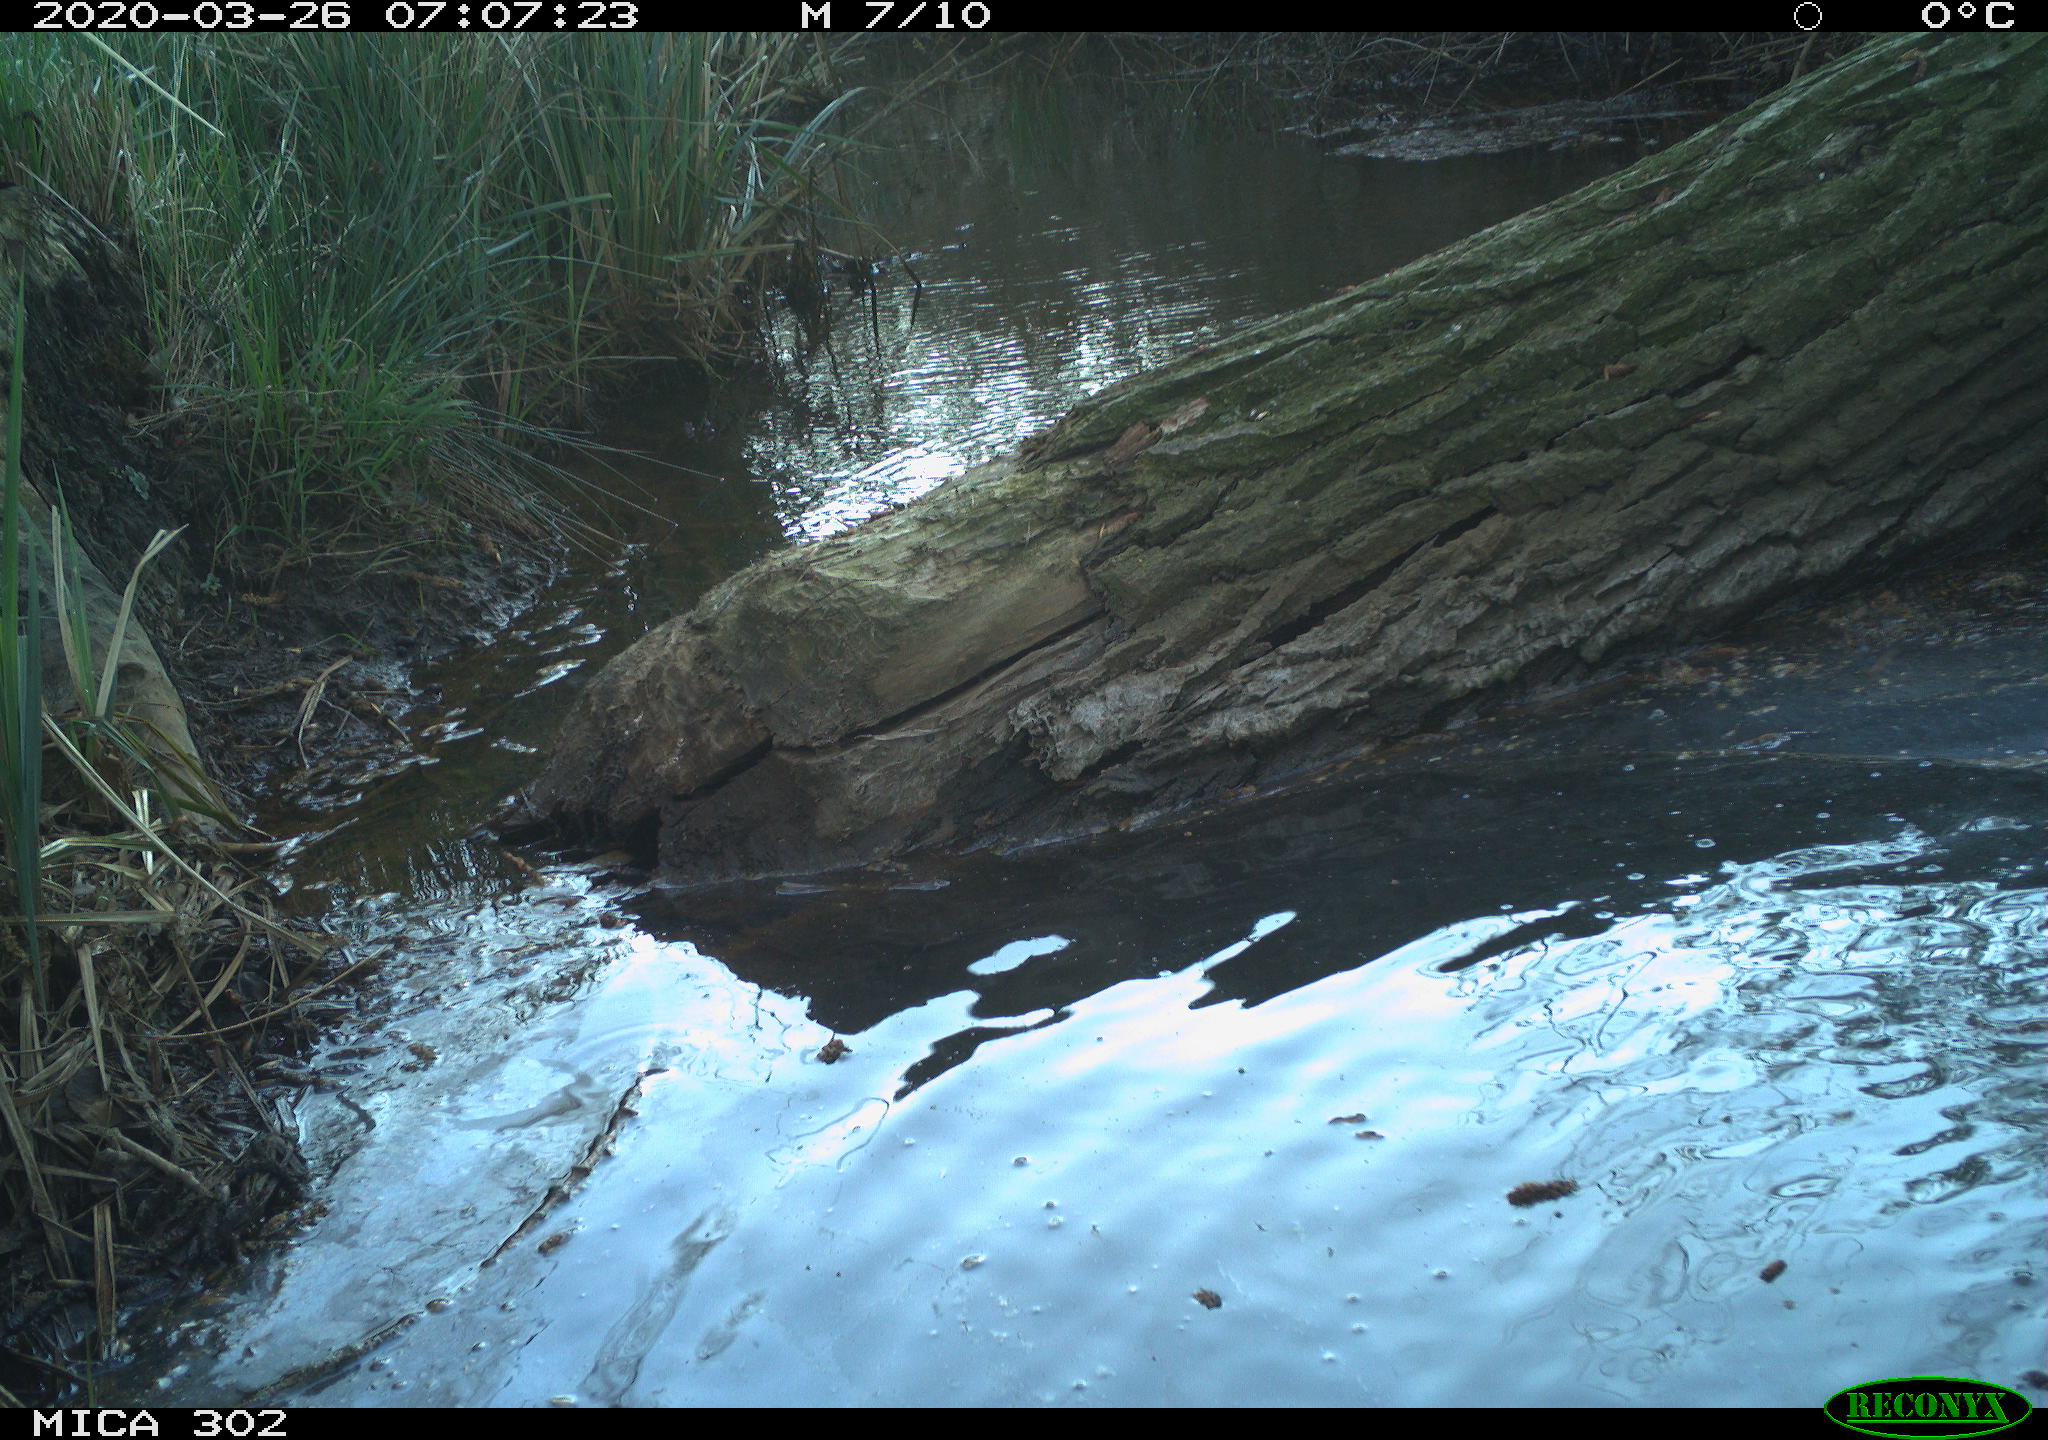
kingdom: Animalia
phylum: Chordata
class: Aves
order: Anseriformes
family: Anatidae
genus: Anas
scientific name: Anas platyrhynchos
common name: Mallard
